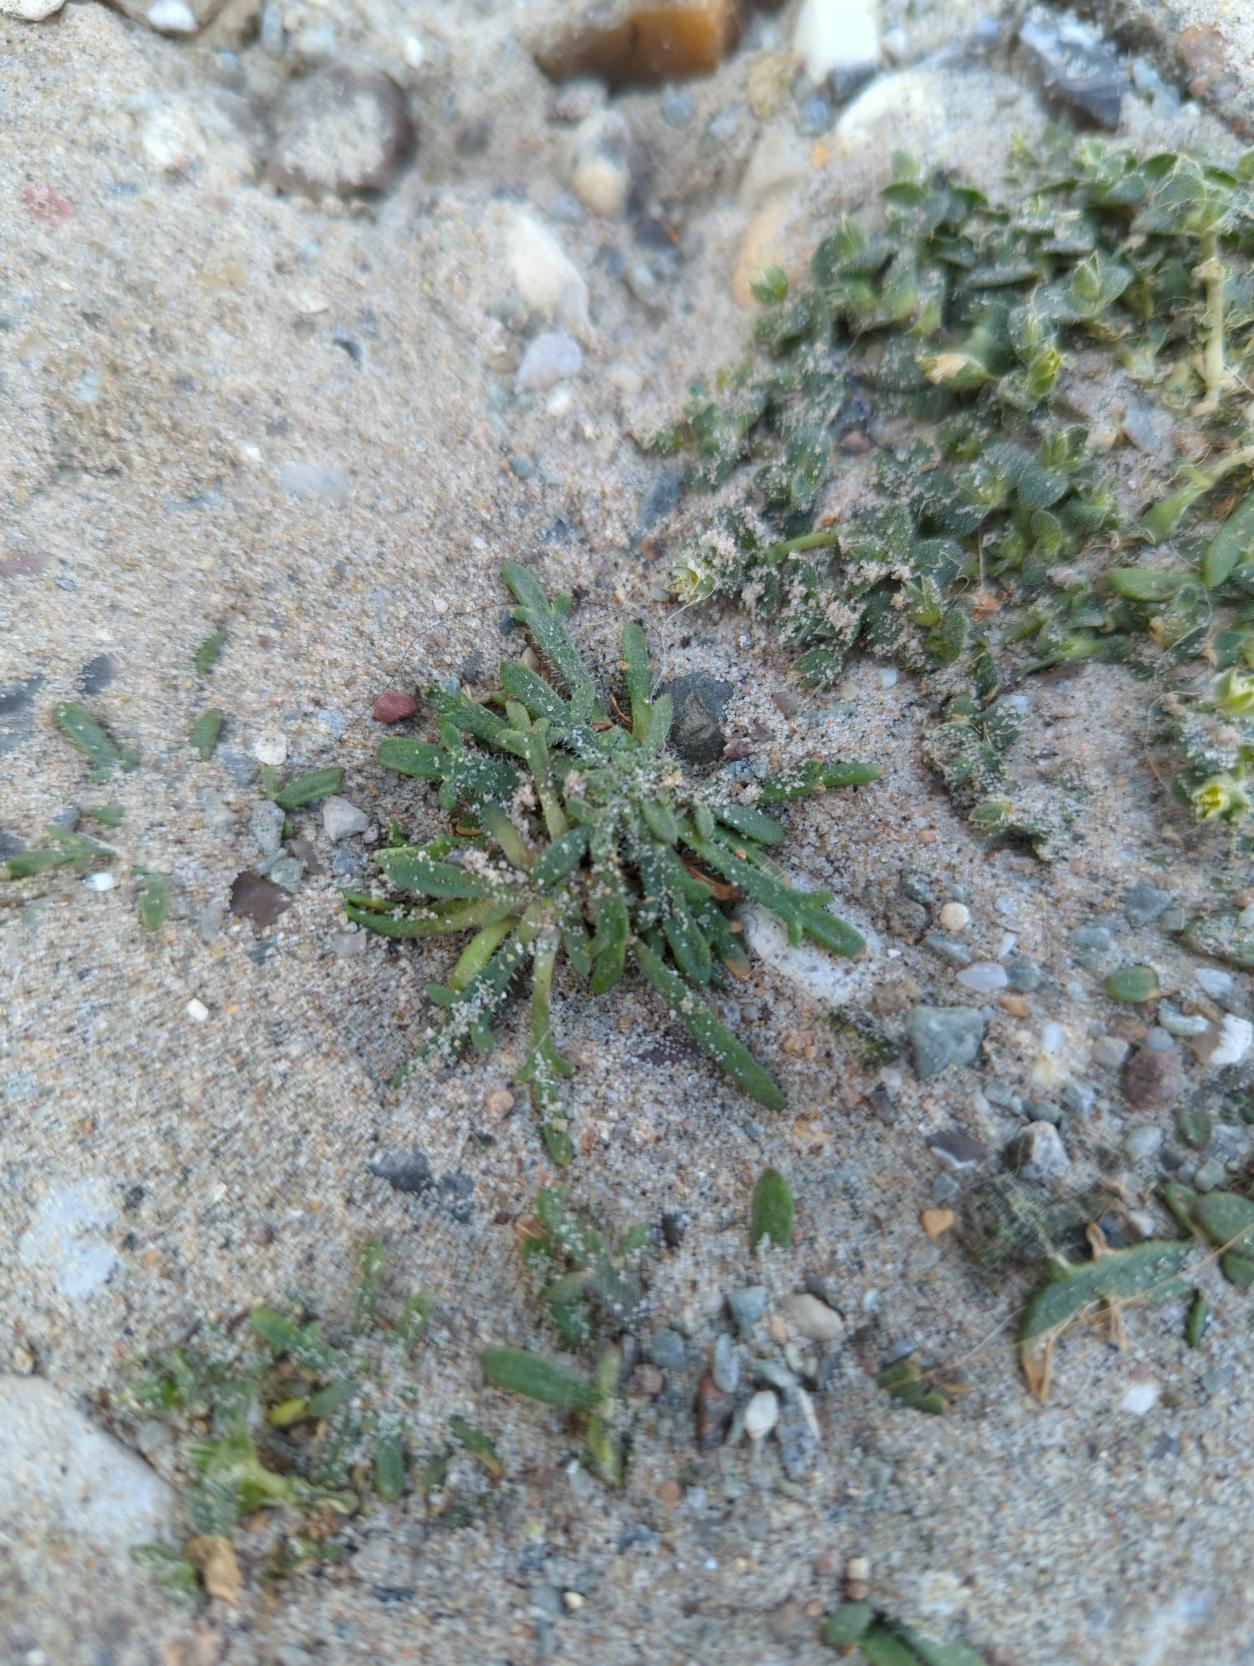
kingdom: Plantae
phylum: Tracheophyta
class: Magnoliopsida
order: Lamiales
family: Plantaginaceae
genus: Plantago
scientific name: Plantago coronopus
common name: Fliget vejbred
